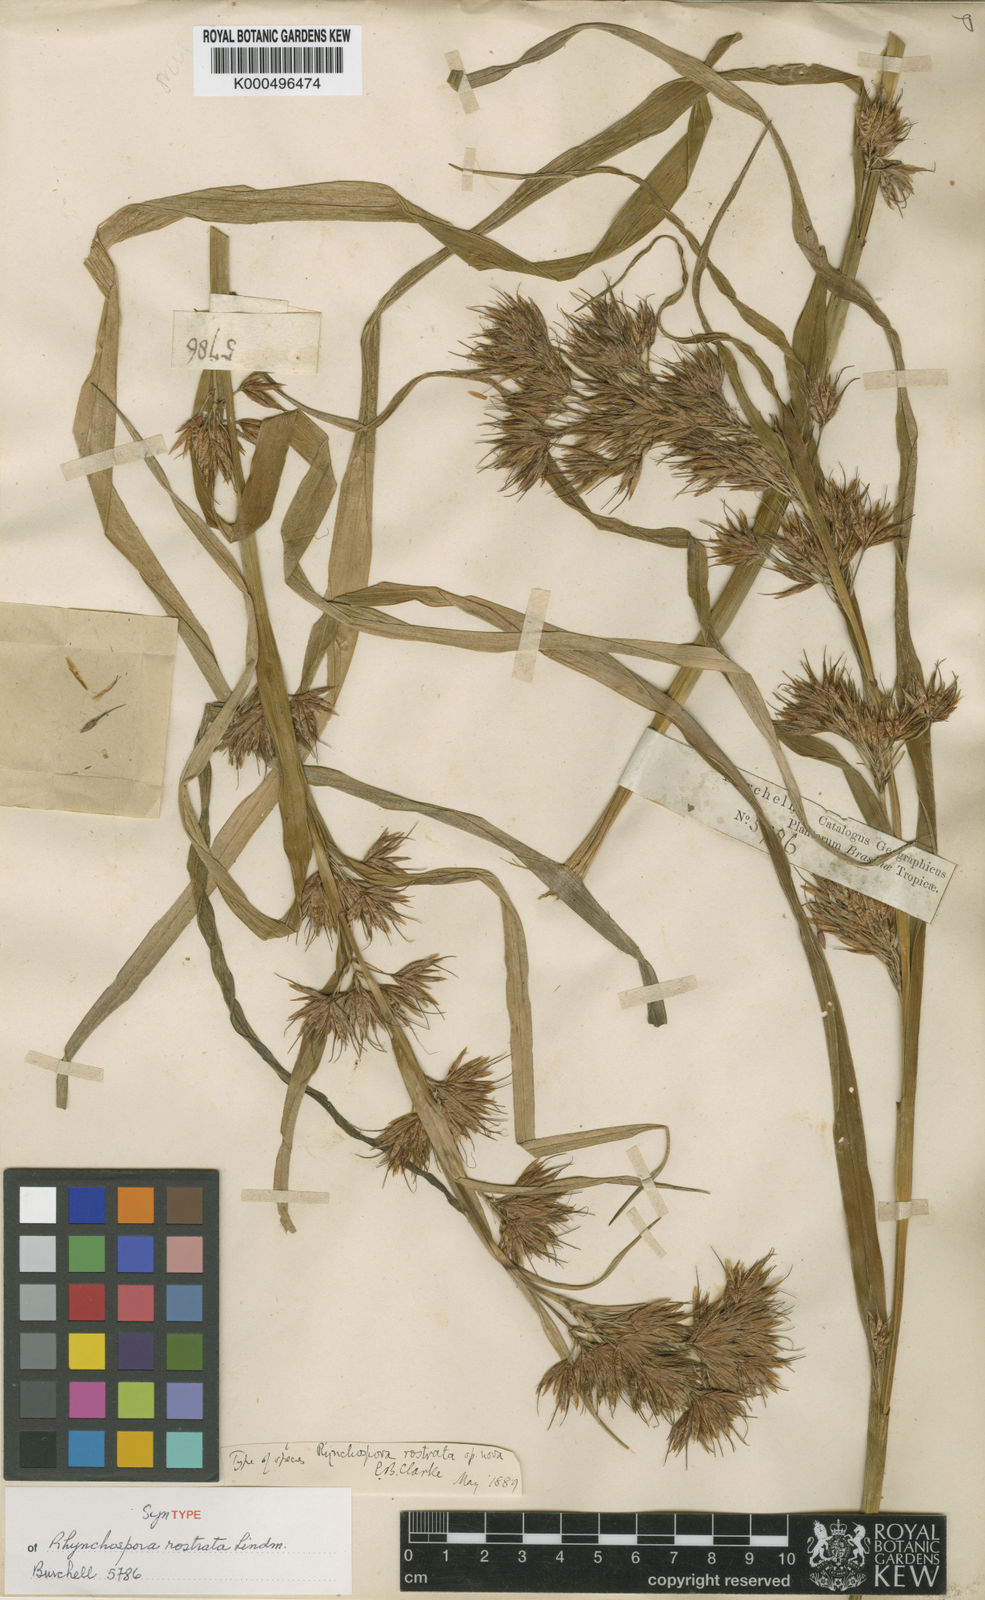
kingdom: Plantae
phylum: Tracheophyta
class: Liliopsida
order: Poales
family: Cyperaceae
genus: Rhynchospora
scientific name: Rhynchospora rostrata
